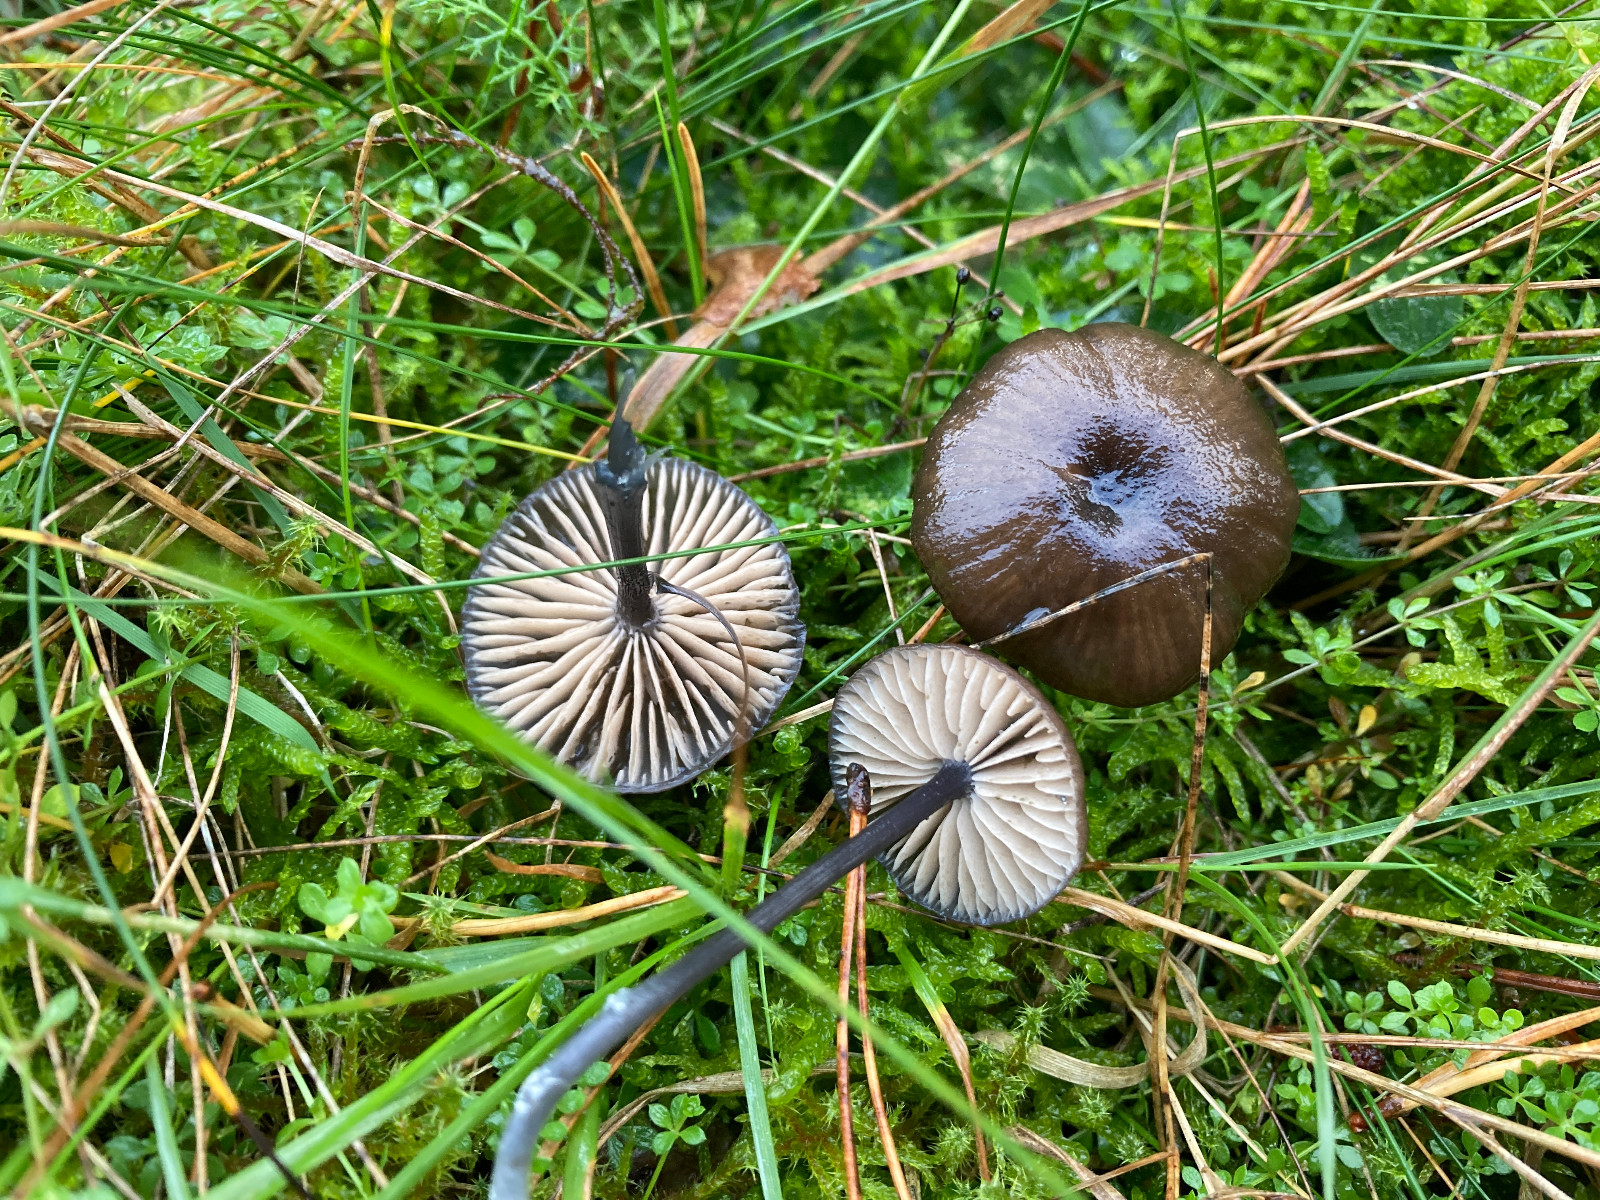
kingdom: Fungi
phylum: Basidiomycota
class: Agaricomycetes
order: Agaricales
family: Entolomataceae
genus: Entoloma
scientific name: Entoloma
